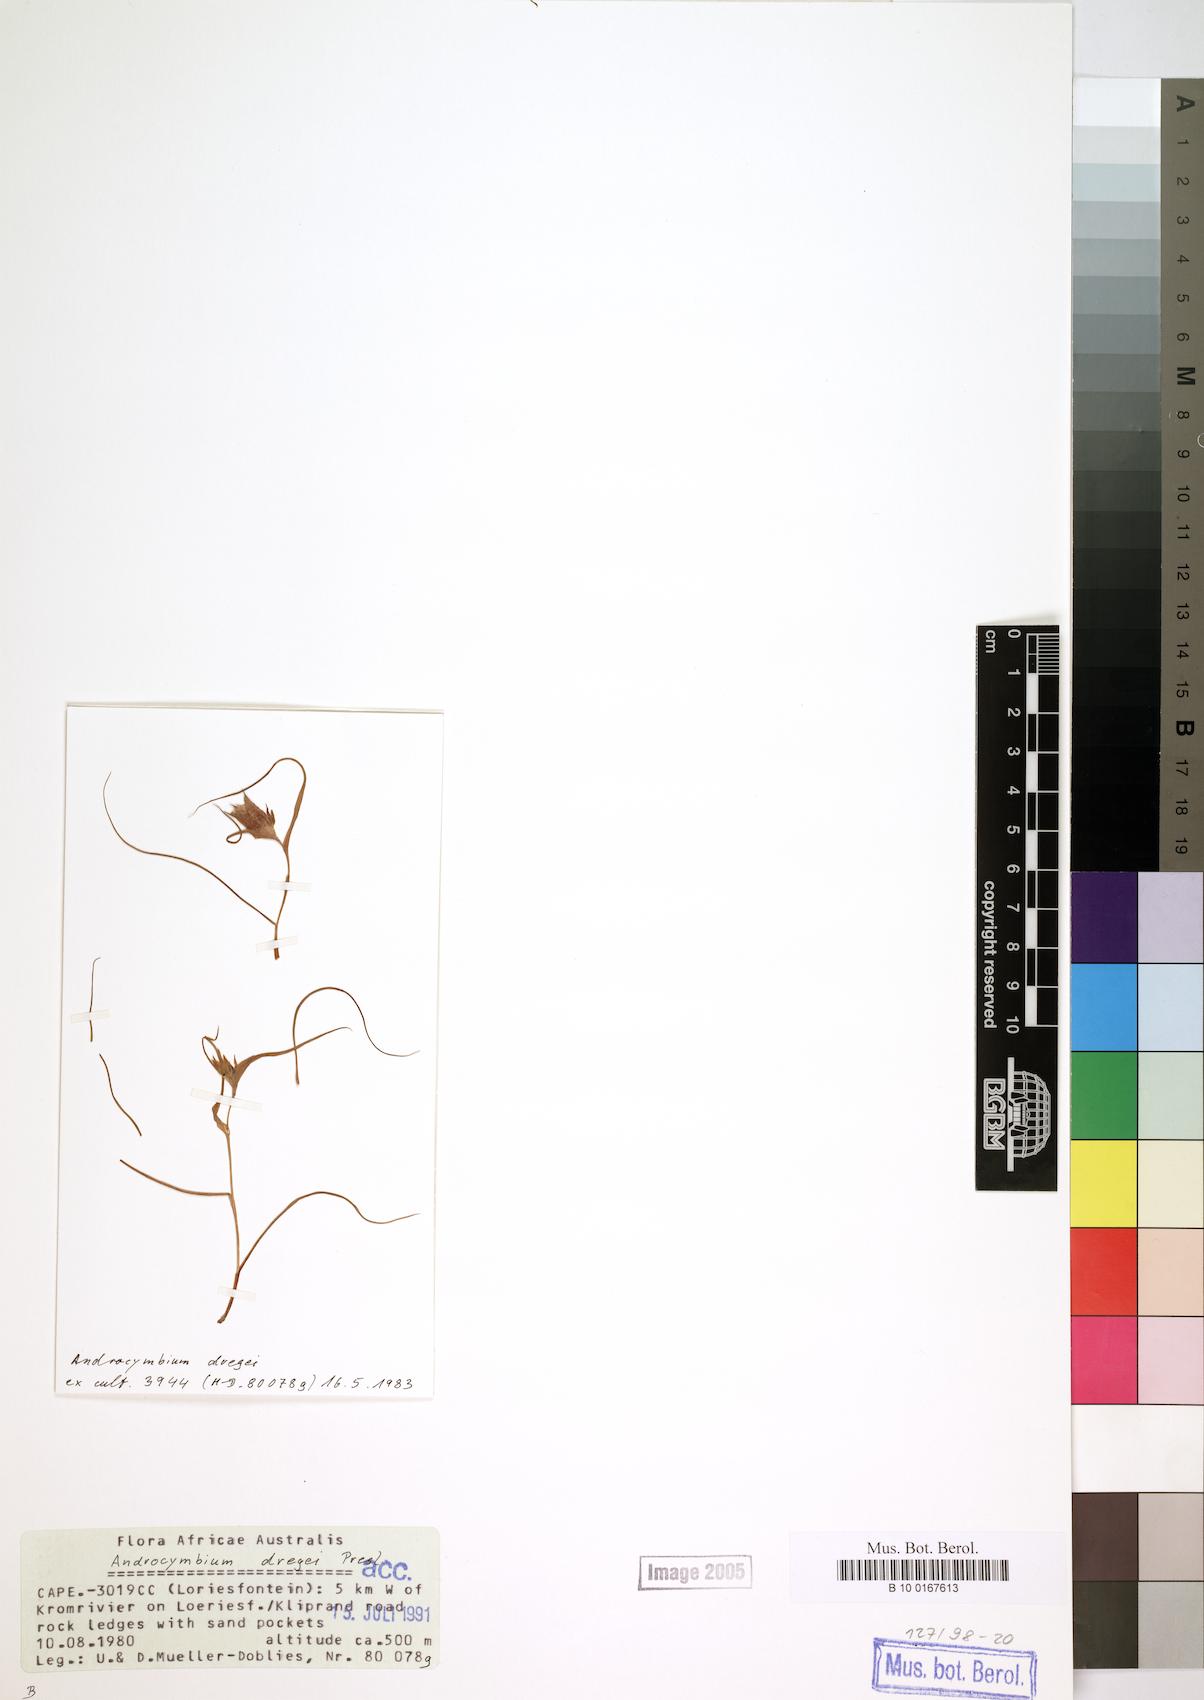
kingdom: Plantae
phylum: Tracheophyta
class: Liliopsida
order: Liliales
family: Colchicaceae
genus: Colchicum
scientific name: Colchicum dregei
